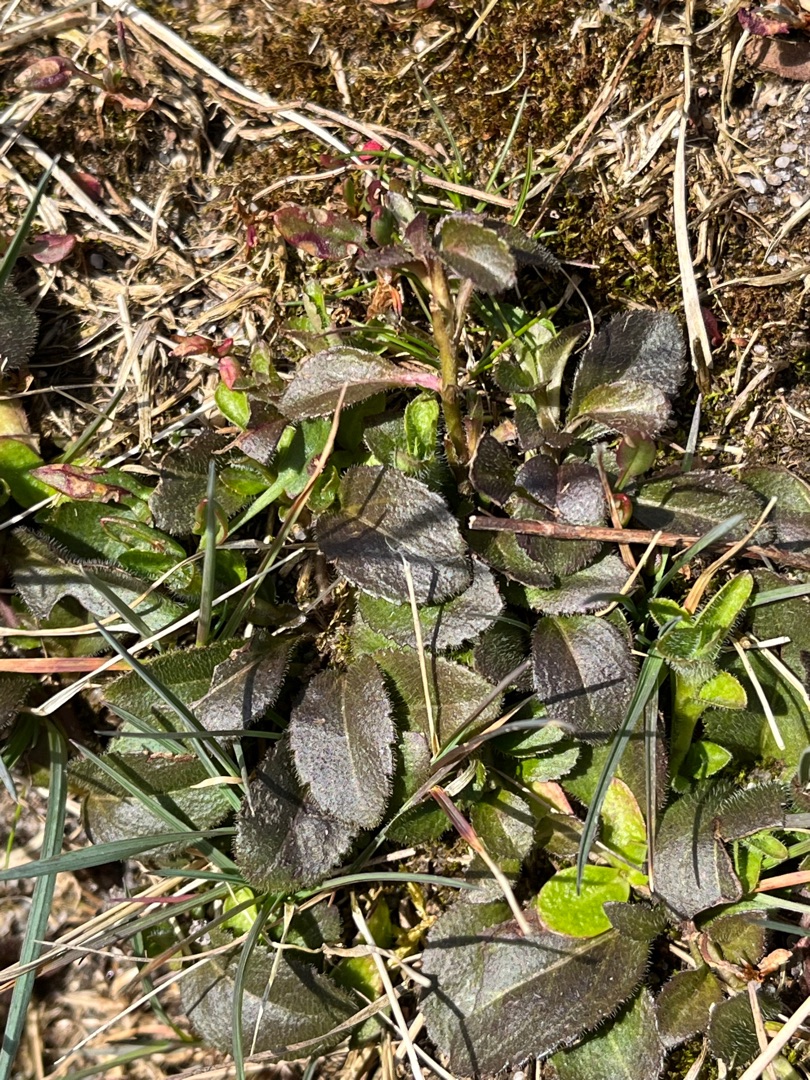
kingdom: Plantae
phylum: Tracheophyta
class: Magnoliopsida
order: Lamiales
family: Plantaginaceae
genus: Veronica
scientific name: Veronica officinalis
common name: Læge-ærenpris
